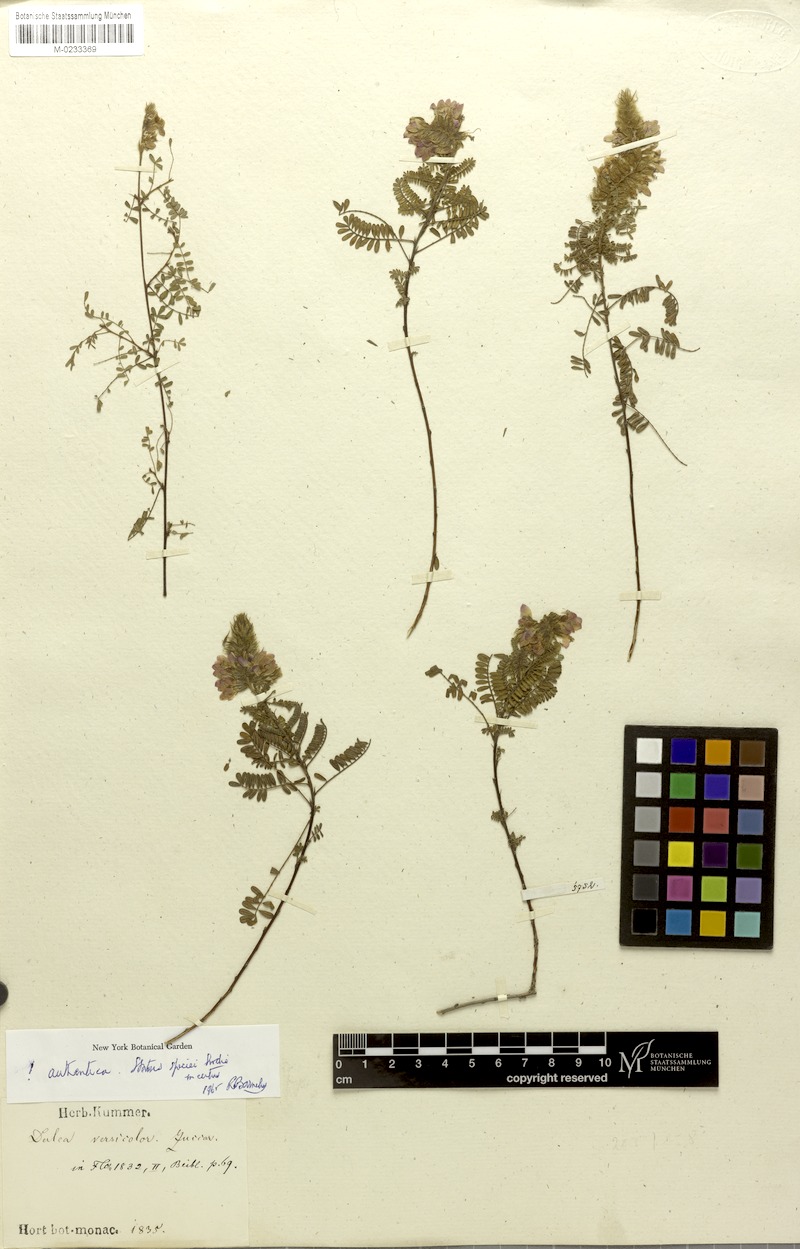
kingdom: Plantae
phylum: Tracheophyta
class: Magnoliopsida
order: Fabales
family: Fabaceae
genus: Dalea
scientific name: Dalea versicolor
